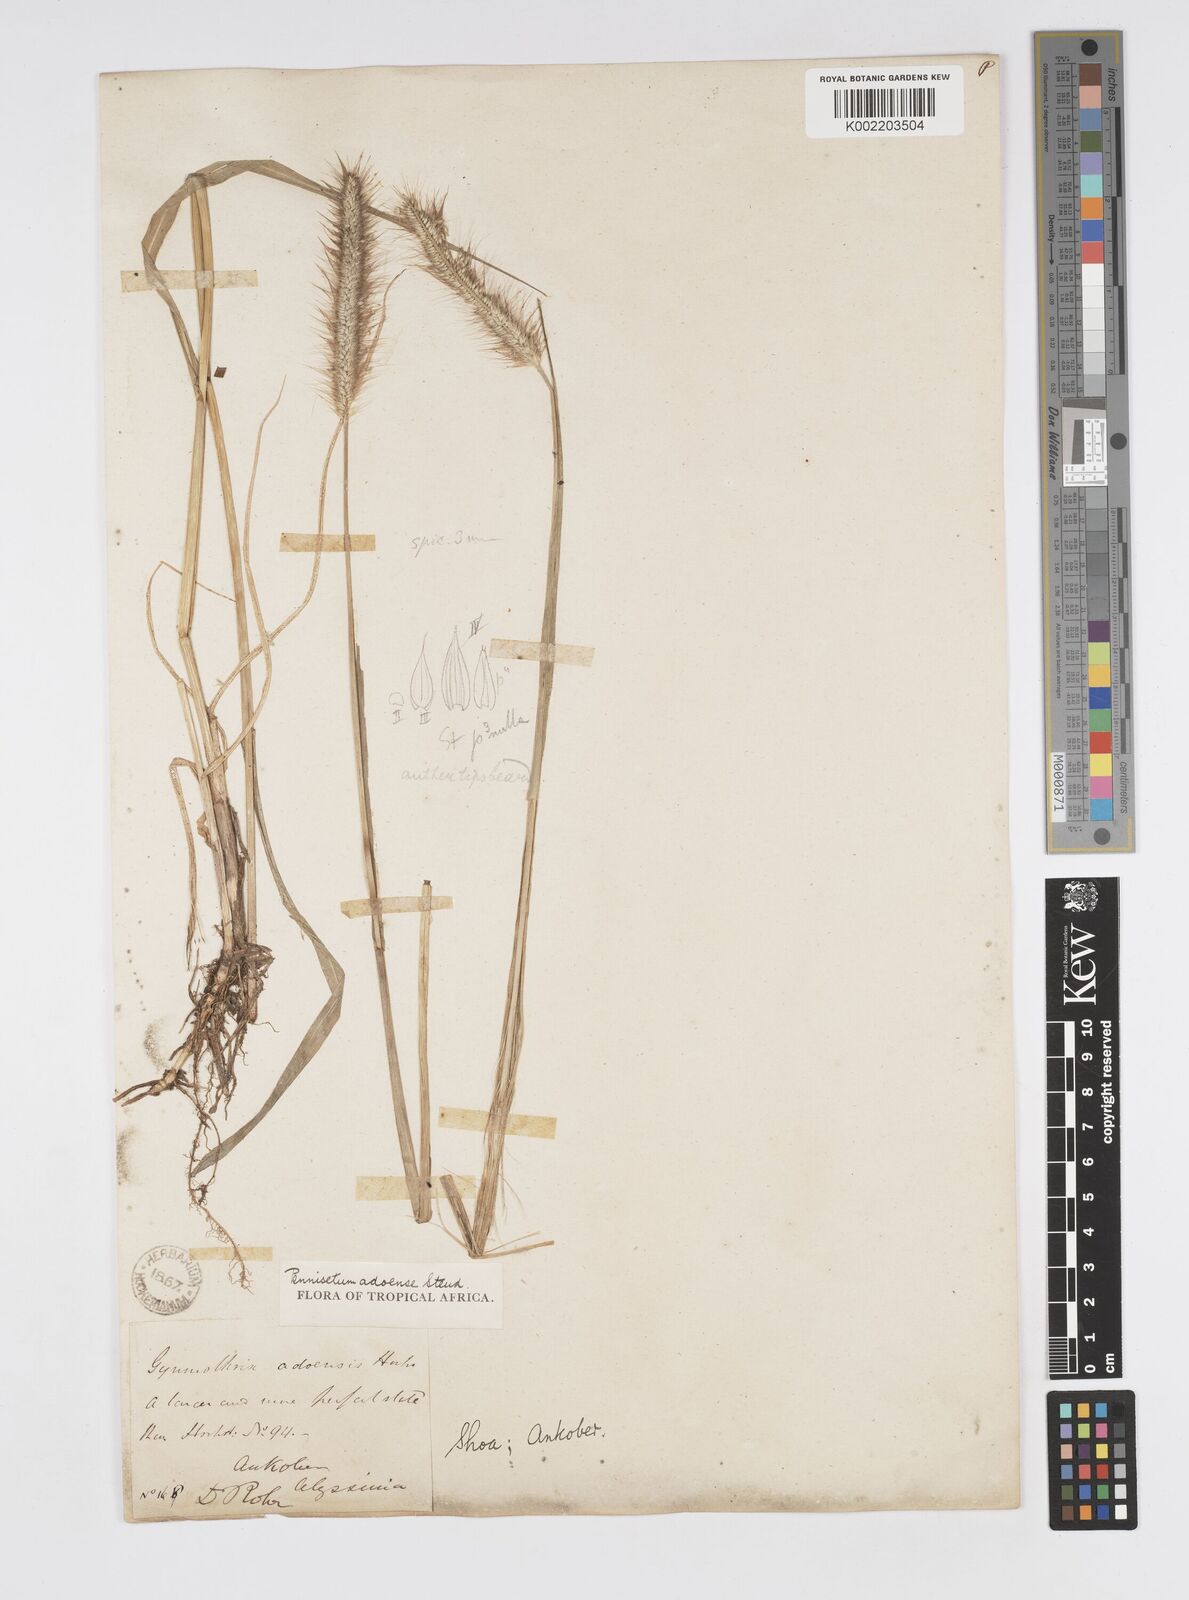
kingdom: Plantae
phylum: Tracheophyta
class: Liliopsida
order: Poales
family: Poaceae
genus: Cenchrus
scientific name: Cenchrus geniculatus
